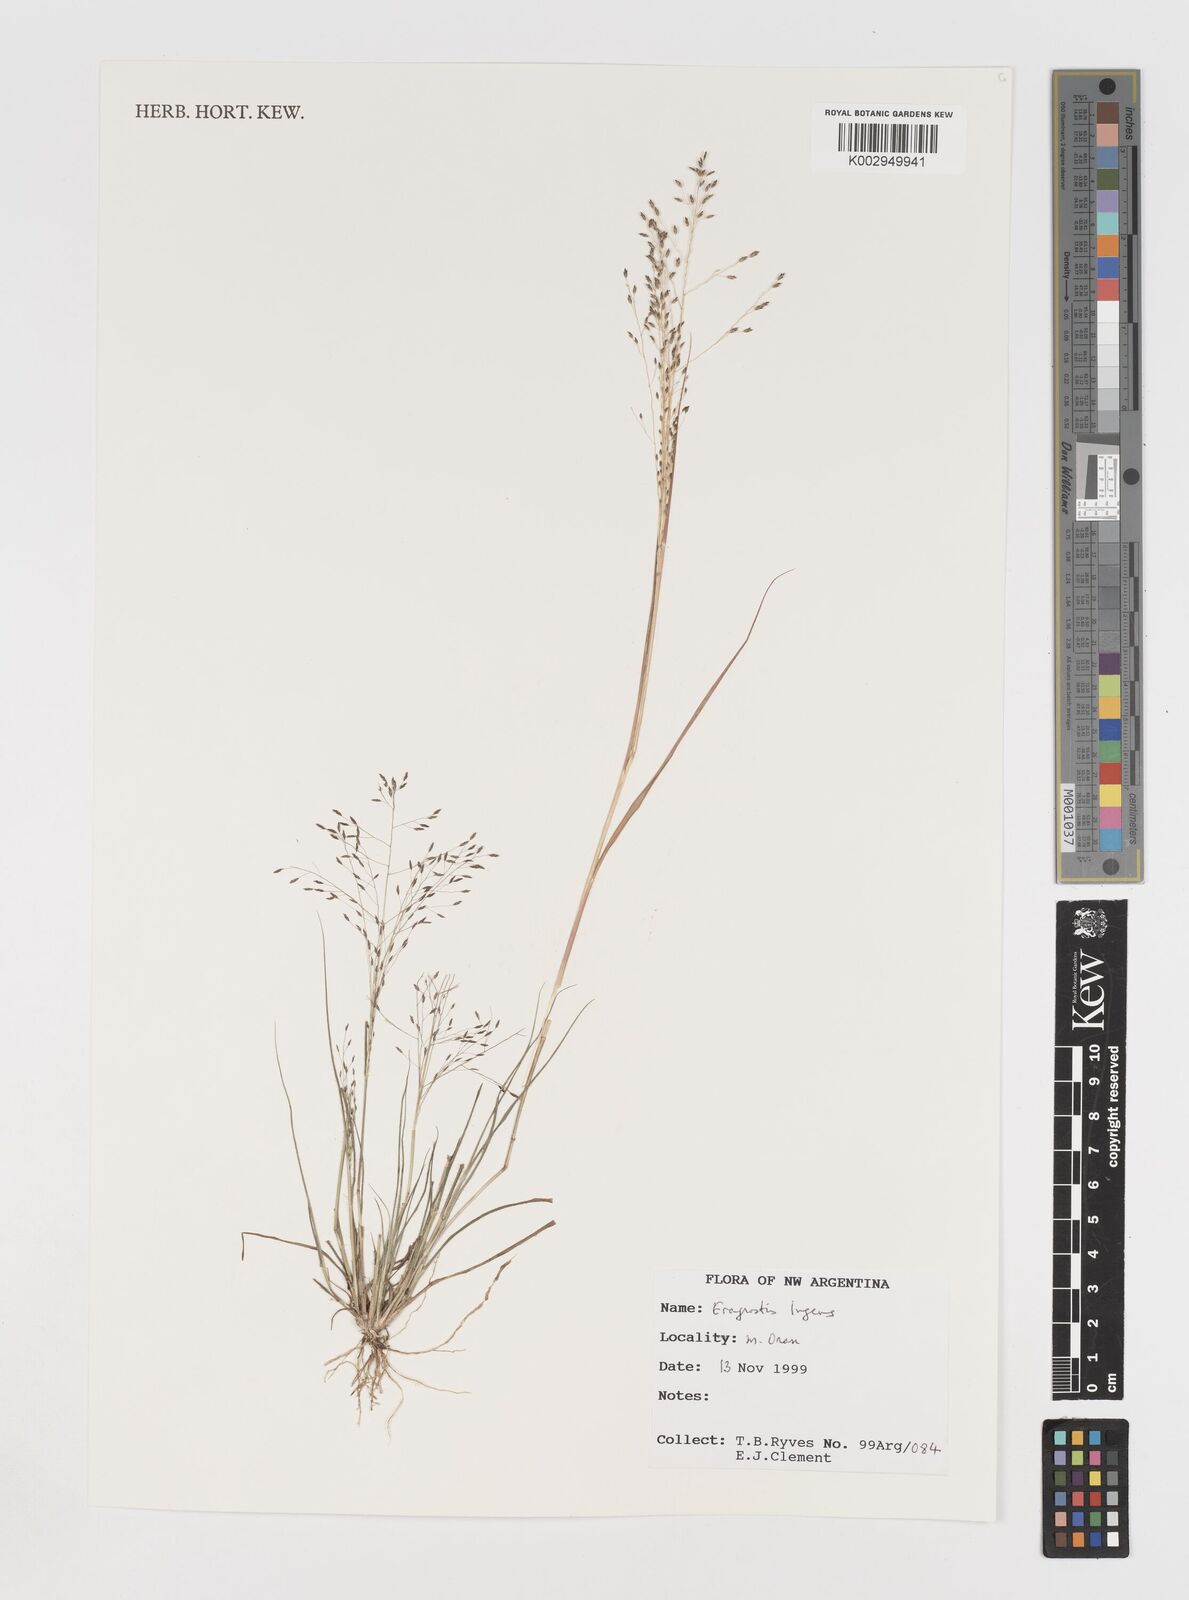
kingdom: Plantae
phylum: Tracheophyta
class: Liliopsida
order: Poales
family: Poaceae
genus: Eragrostis
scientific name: Eragrostis lugens
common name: Mourning love grass
